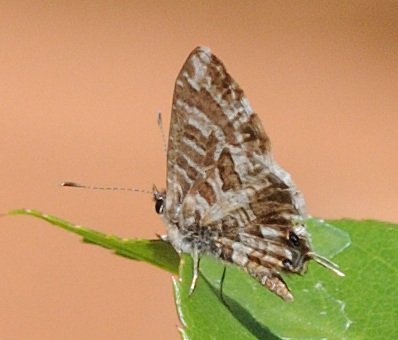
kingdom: Animalia
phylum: Arthropoda
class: Insecta
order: Lepidoptera
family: Lycaenidae
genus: Cacyreus
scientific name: Cacyreus lingeus
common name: Common Bush Blue
